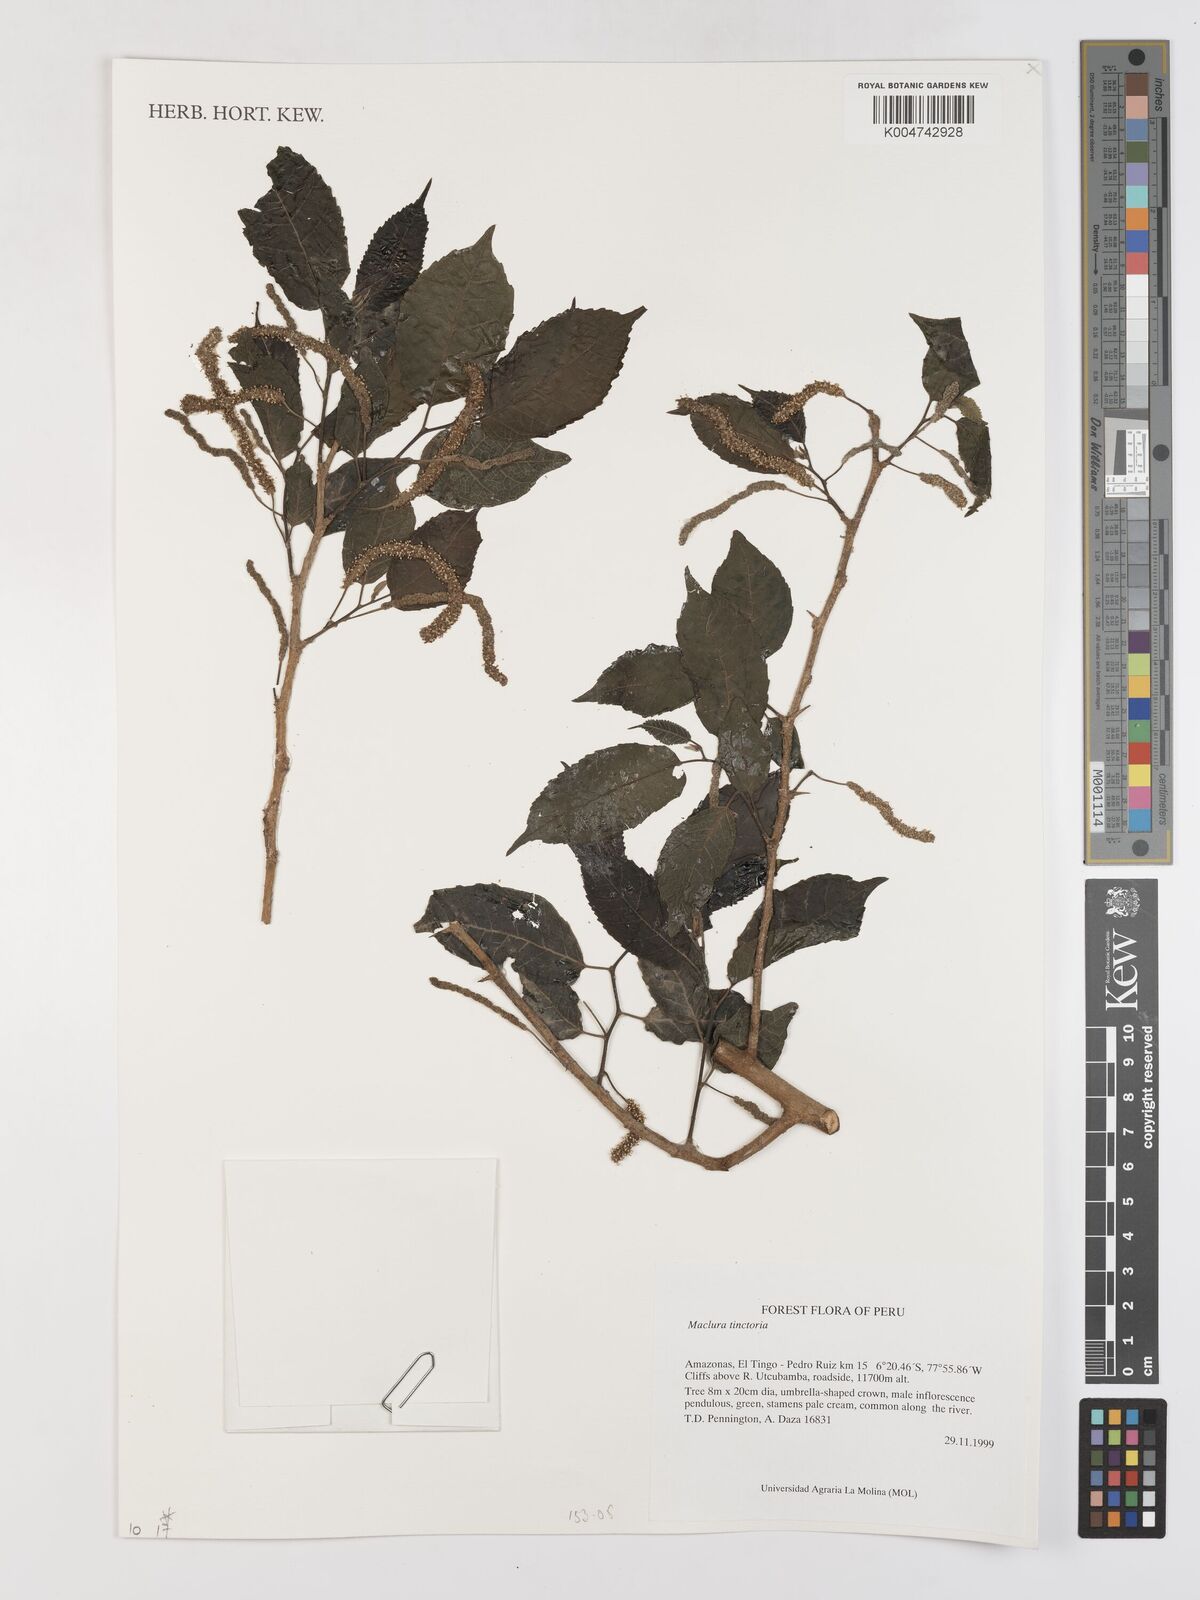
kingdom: Plantae
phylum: Tracheophyta
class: Magnoliopsida
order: Rosales
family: Moraceae
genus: Maclura
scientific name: Maclura tinctoria
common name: Old fustic
